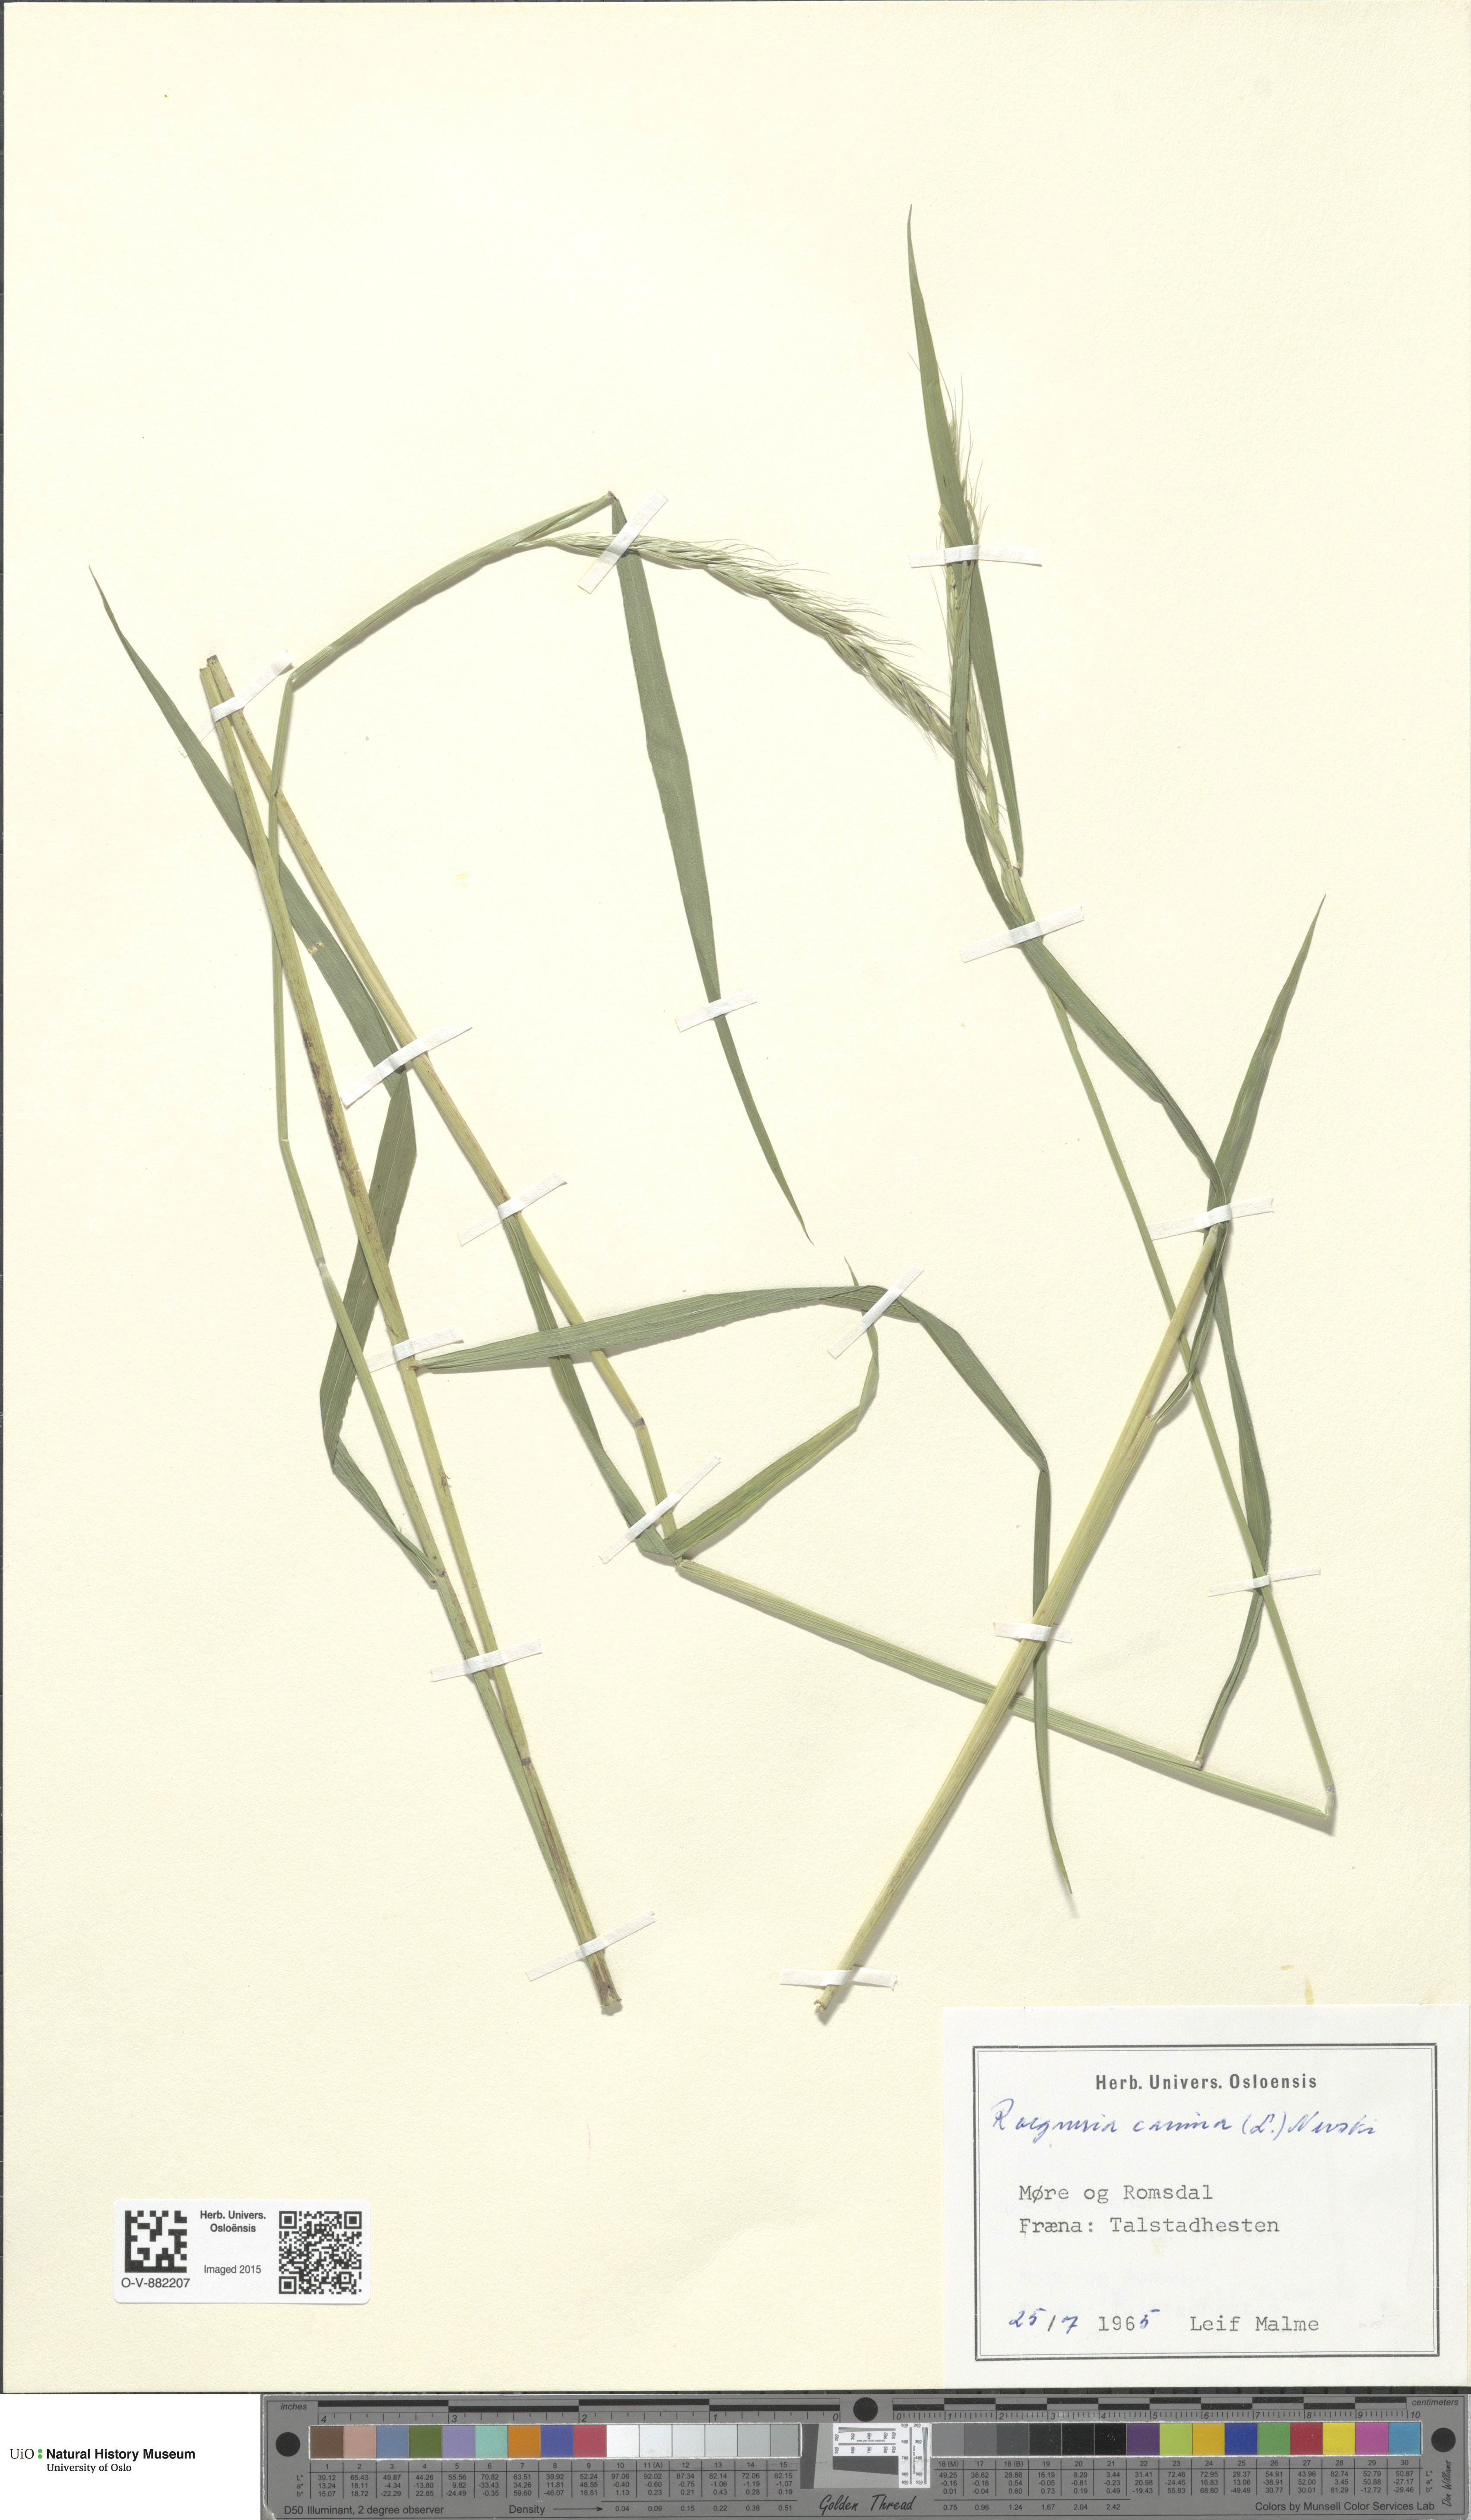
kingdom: Plantae
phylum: Tracheophyta
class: Liliopsida
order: Poales
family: Poaceae
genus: Elymus
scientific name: Elymus caninus
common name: Bearded couch
